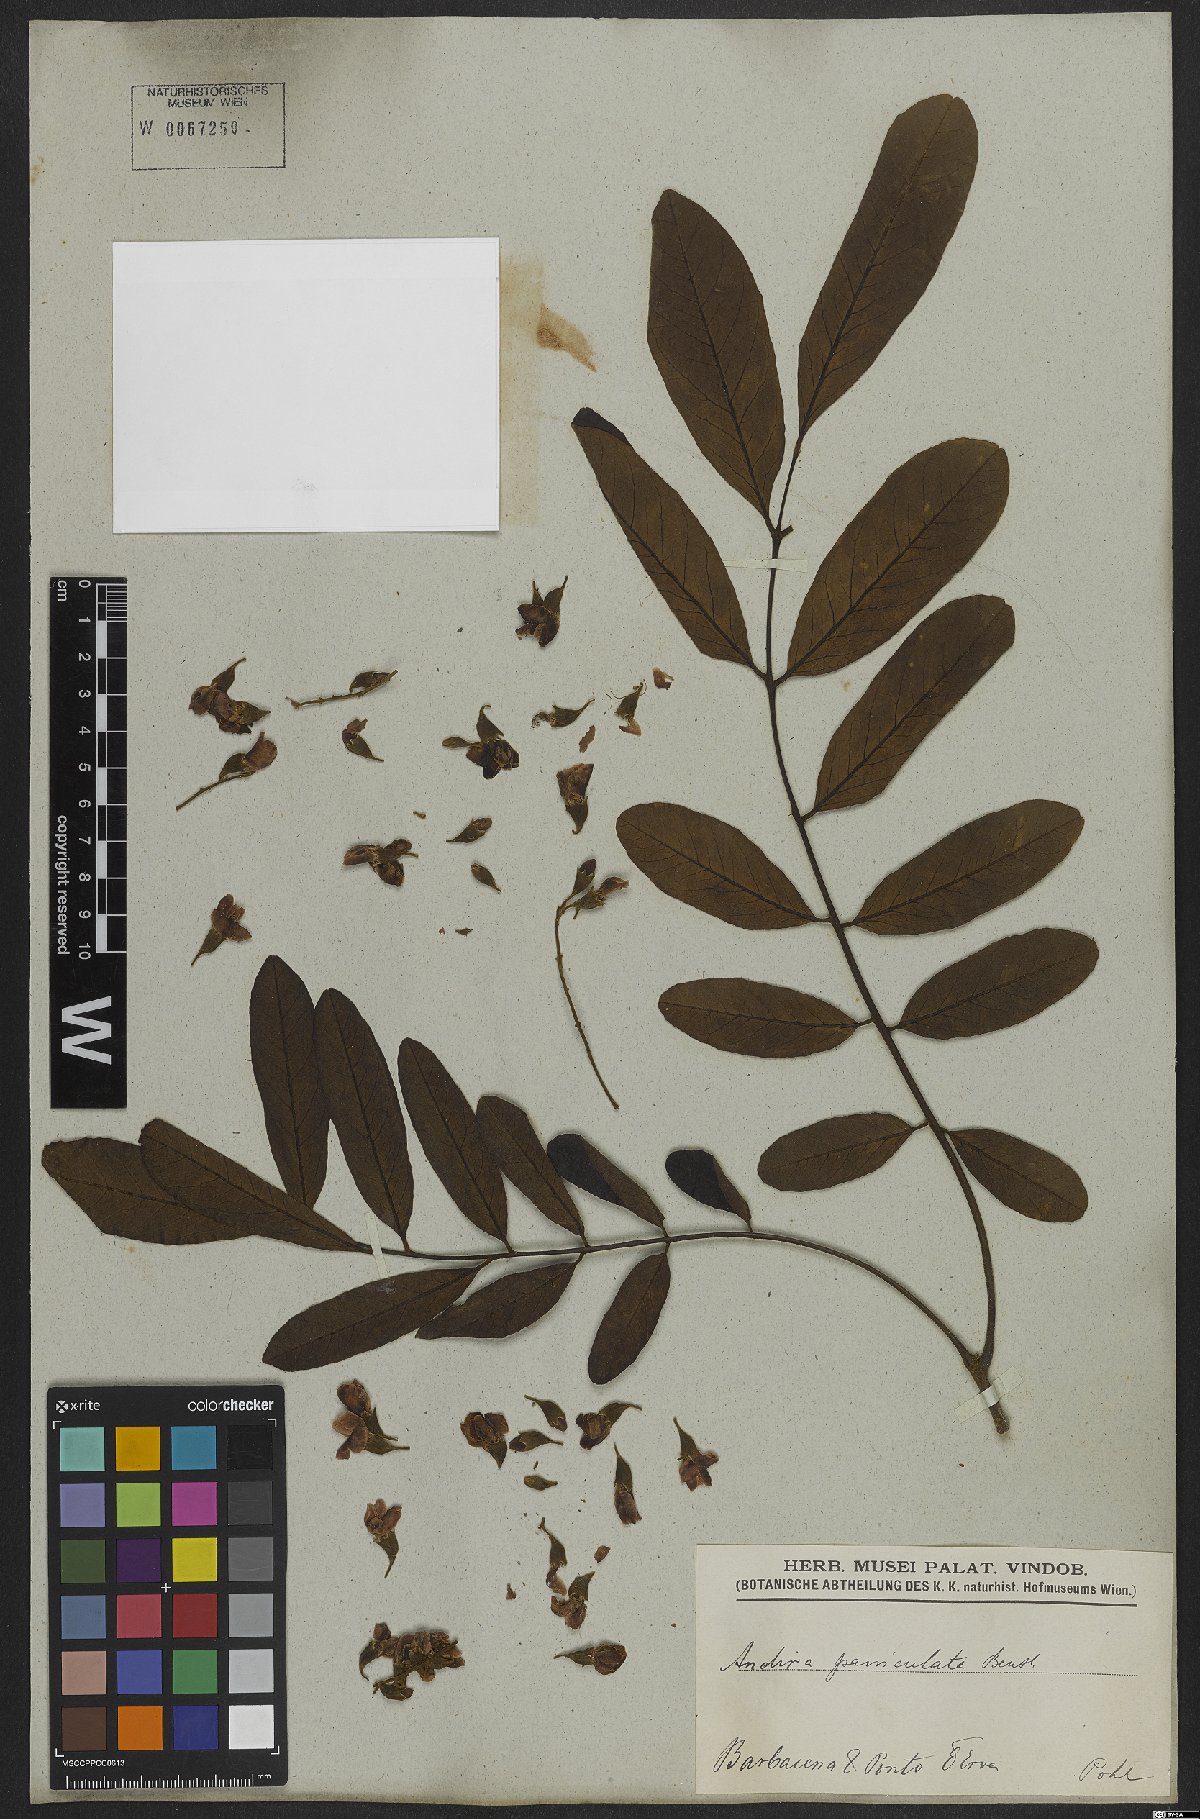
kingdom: Plantae
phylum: Tracheophyta
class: Magnoliopsida
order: Fabales
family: Fabaceae
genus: Andira
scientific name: Andira vermifuga
